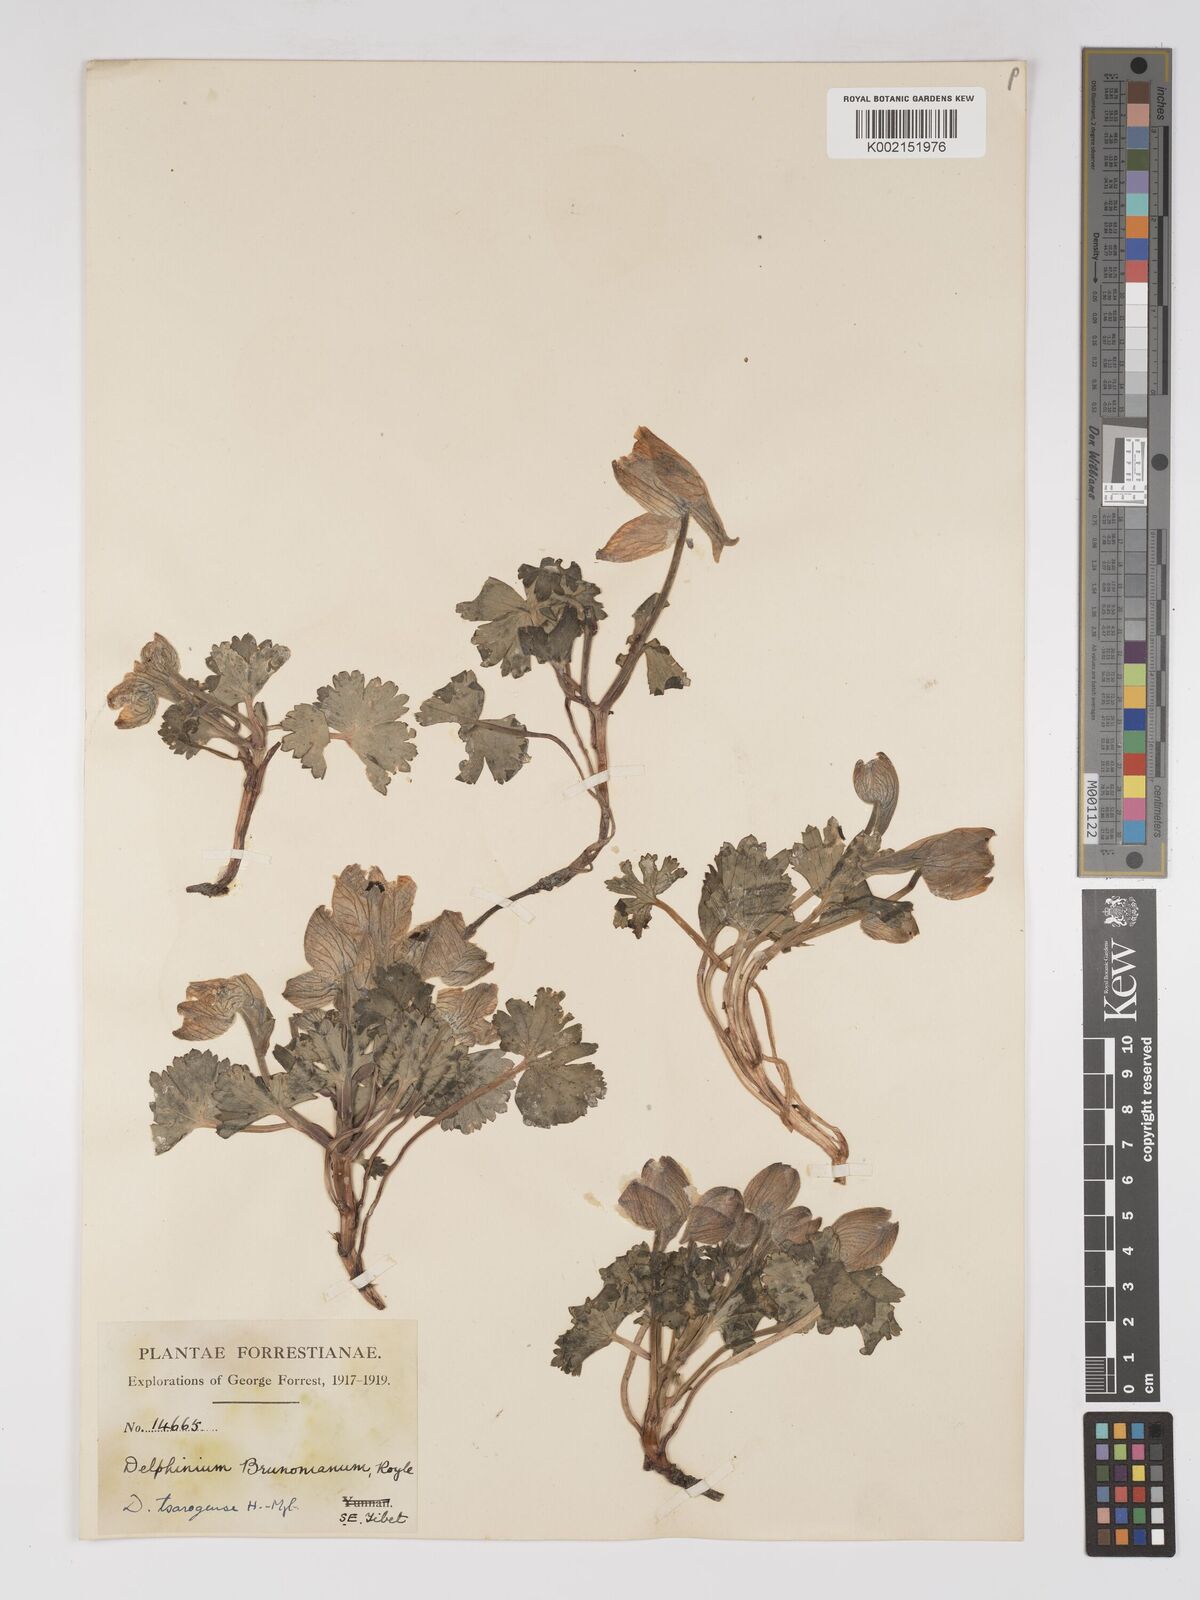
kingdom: Plantae
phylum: Tracheophyta
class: Magnoliopsida
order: Ranunculales
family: Ranunculaceae
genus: Delphinium
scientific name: Delphinium chrysotrichum
